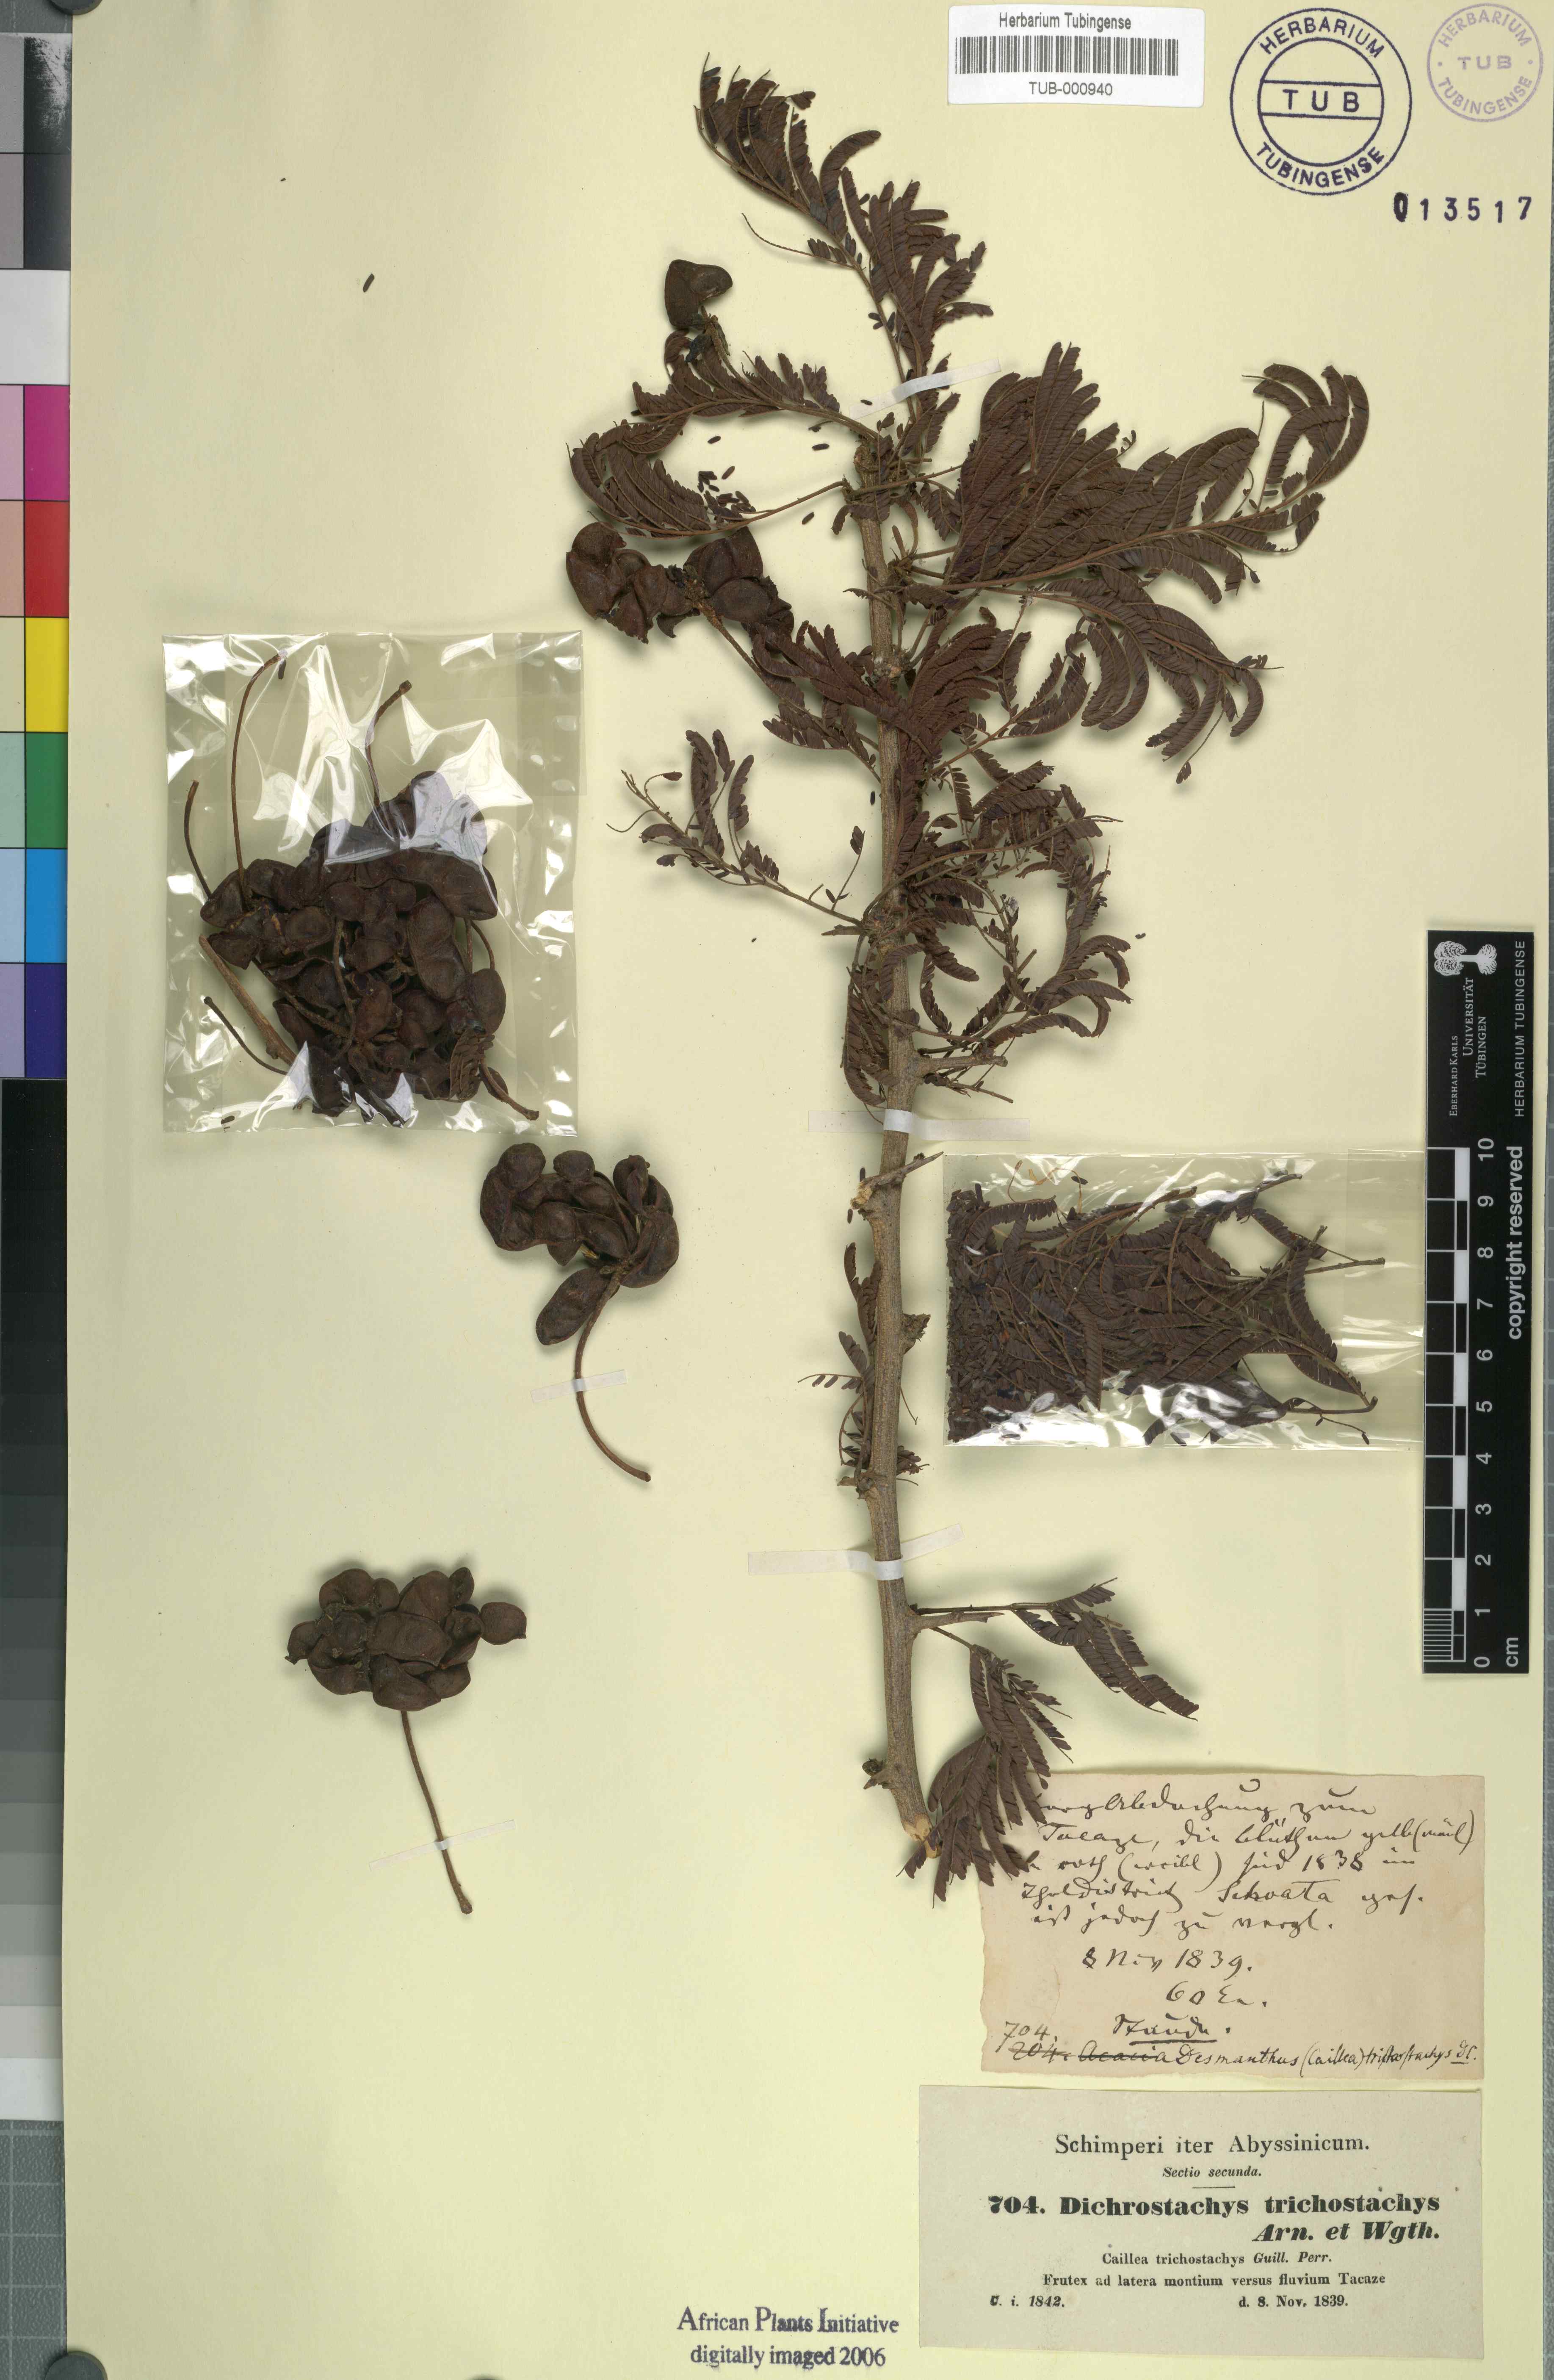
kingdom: Plantae
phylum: Tracheophyta
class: Magnoliopsida
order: Fabales
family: Fabaceae
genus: Dichrostachys
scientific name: Dichrostachys cinerea
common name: Sicklebush
